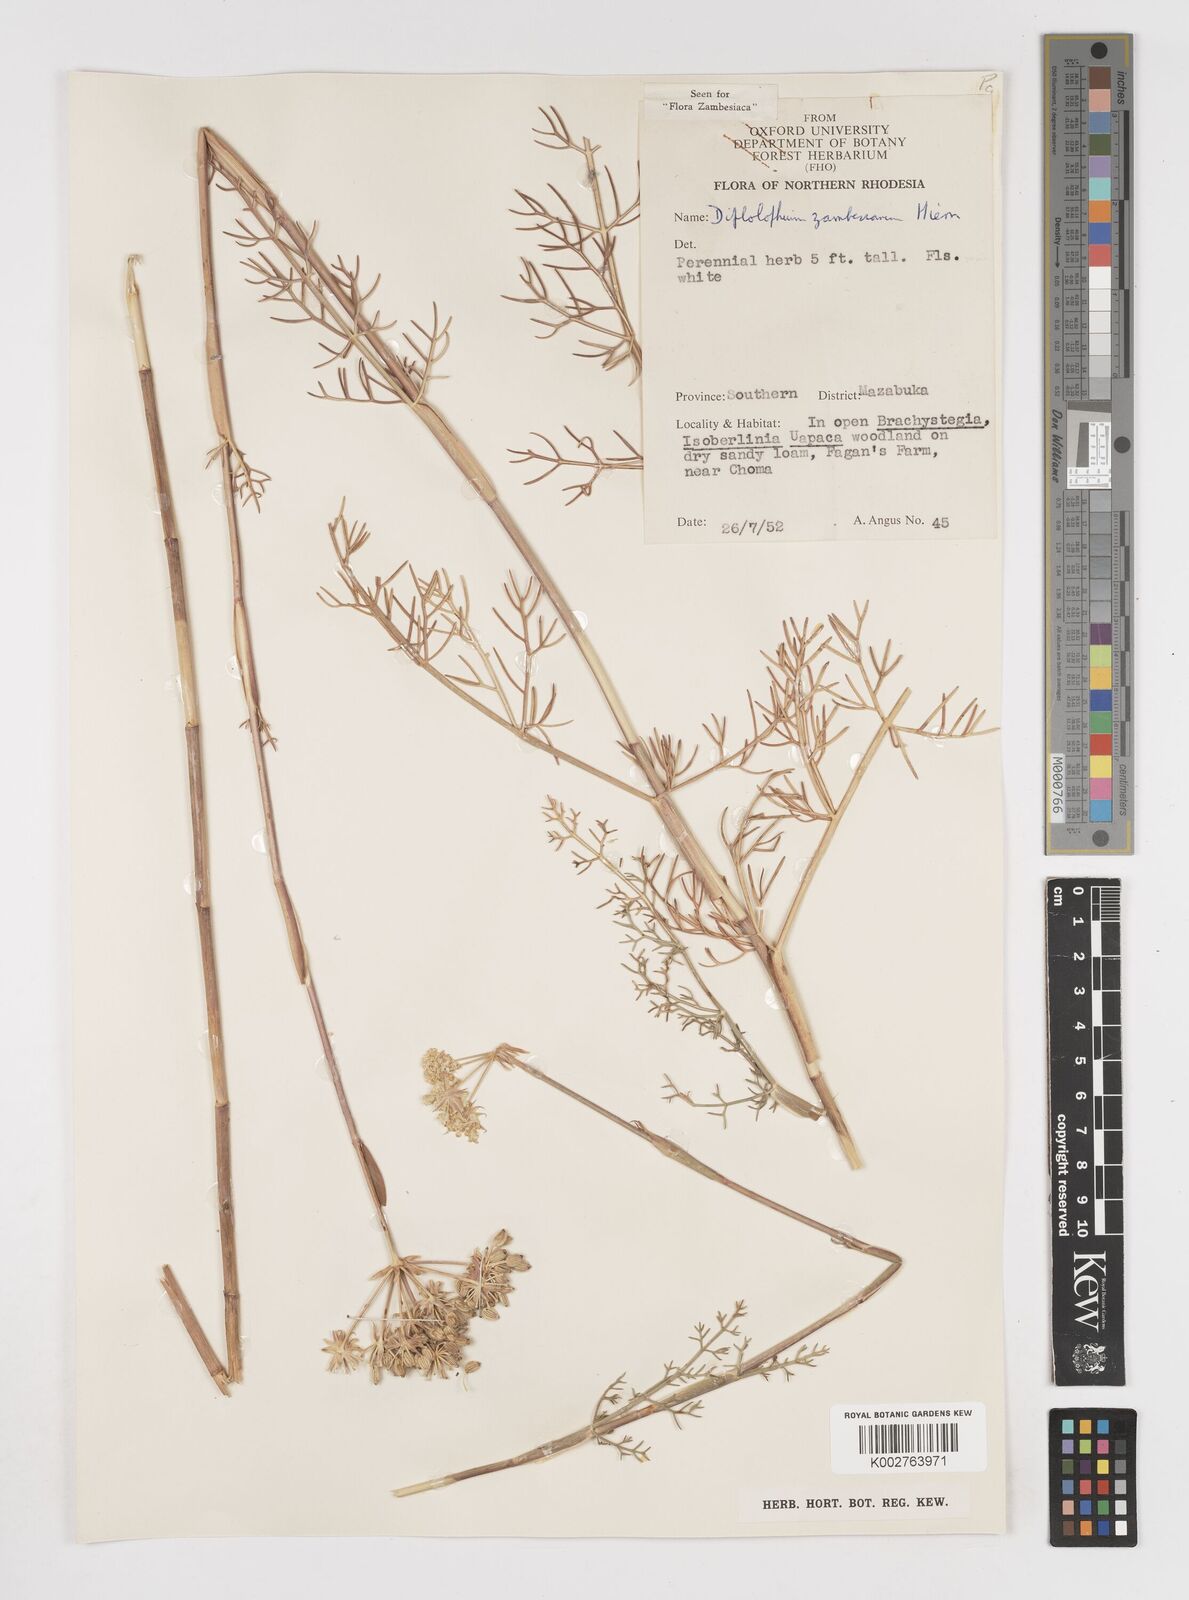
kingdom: Plantae
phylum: Tracheophyta
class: Magnoliopsida
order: Apiales
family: Apiaceae
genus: Diplolophium
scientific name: Diplolophium zambesianum
